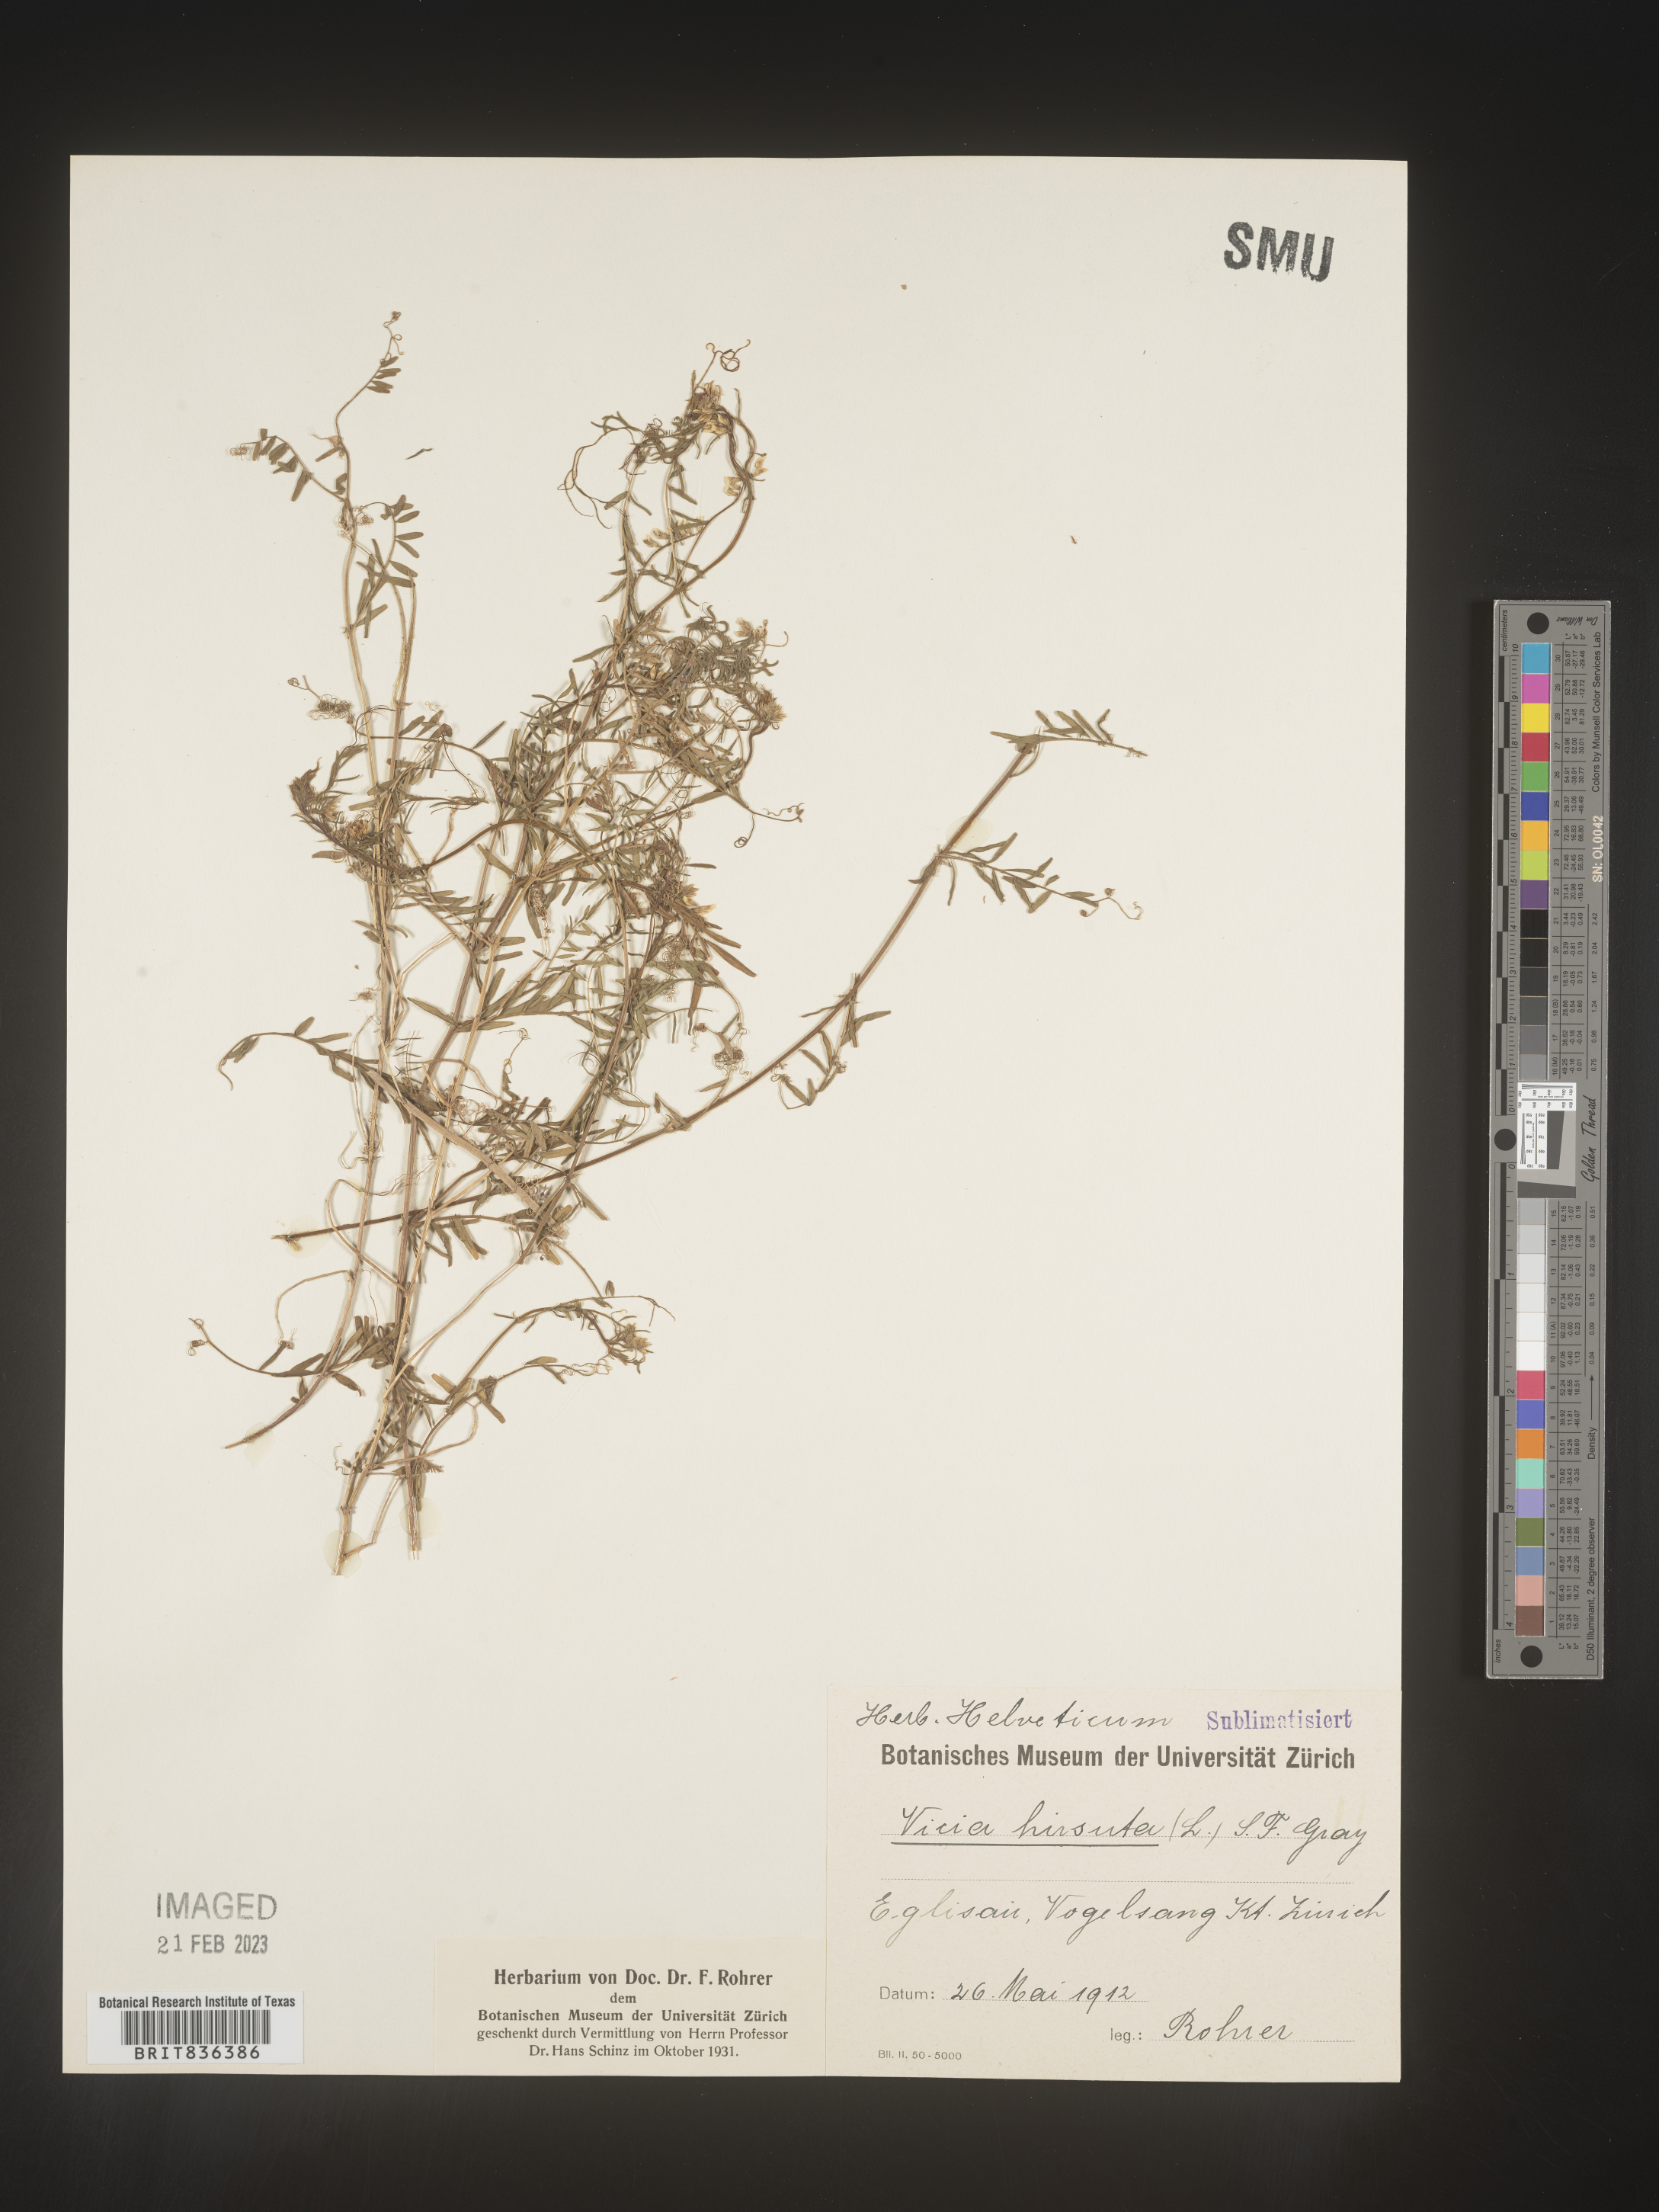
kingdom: Plantae
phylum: Tracheophyta
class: Magnoliopsida
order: Fabales
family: Fabaceae
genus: Vicia
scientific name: Vicia
